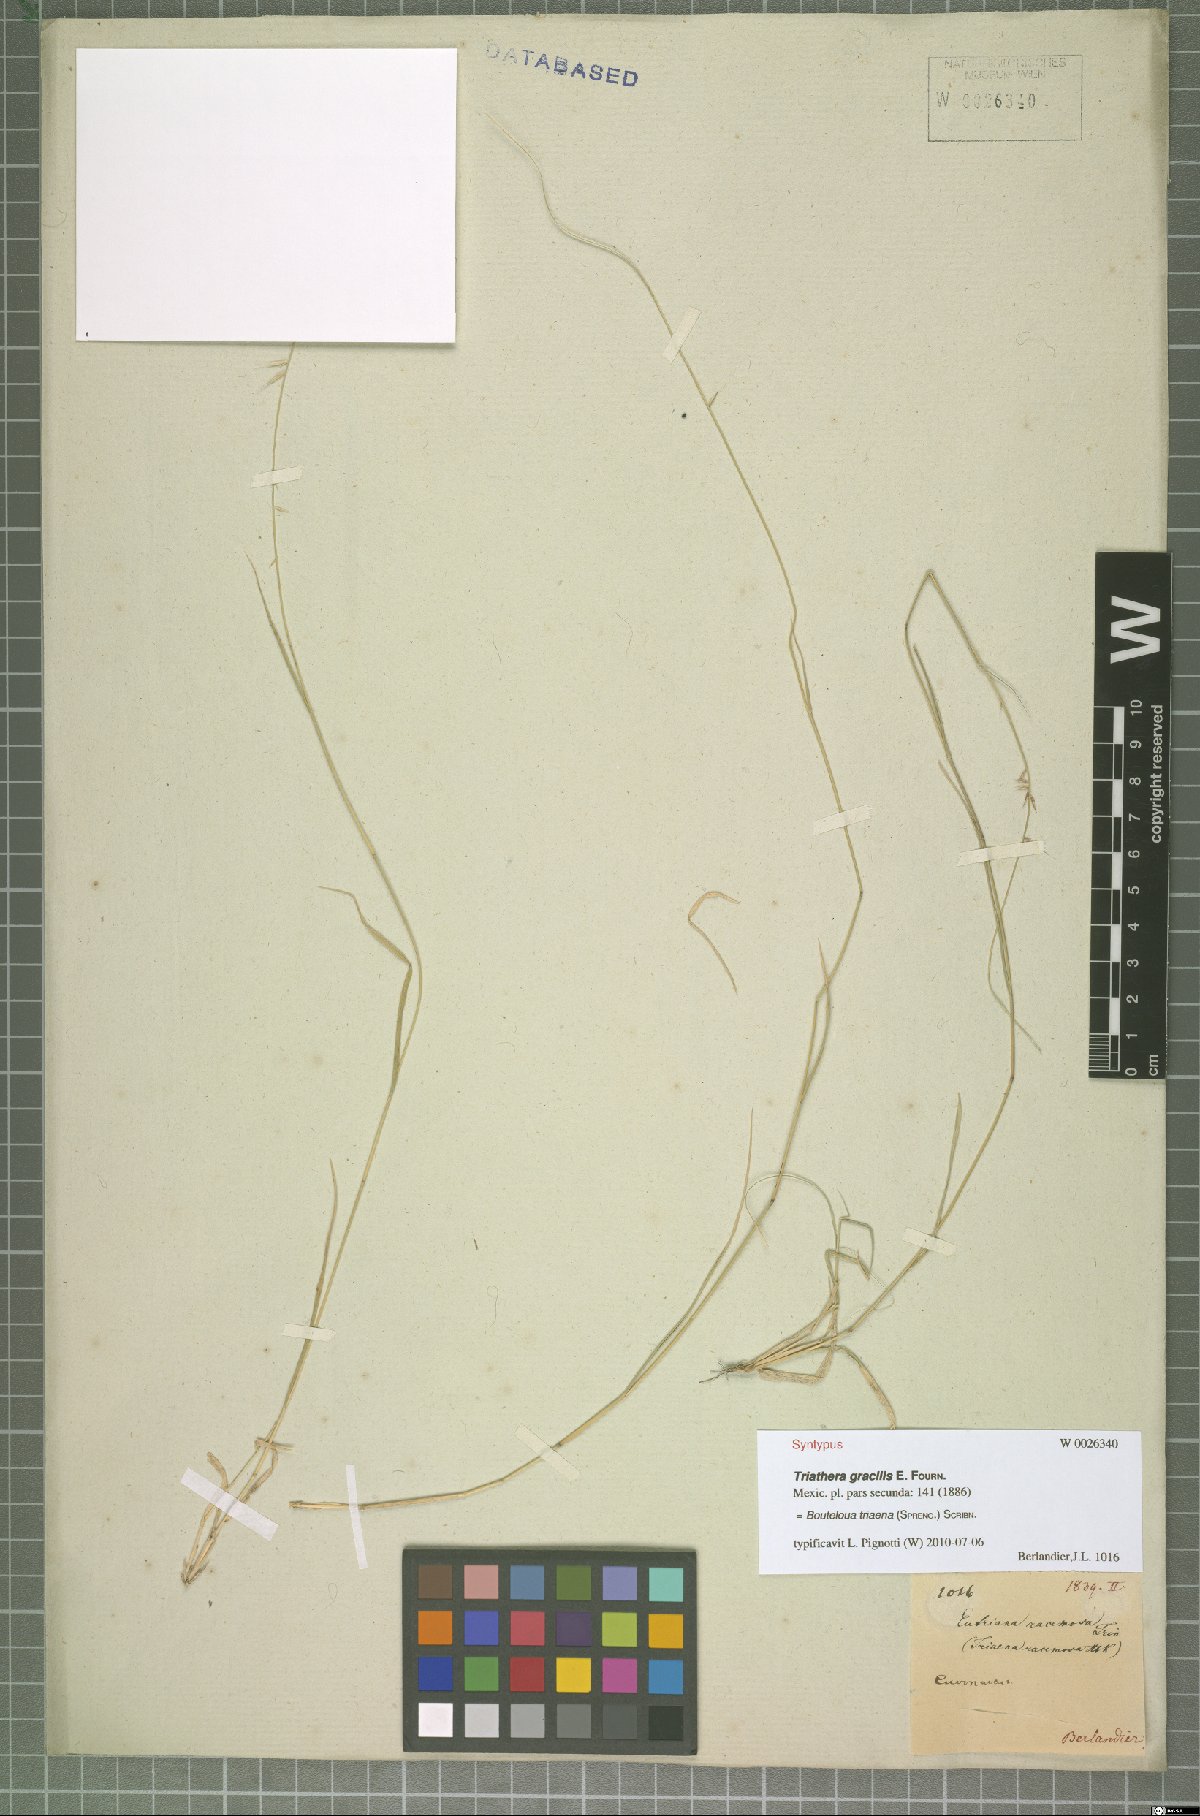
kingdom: Plantae
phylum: Tracheophyta
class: Liliopsida
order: Poales
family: Poaceae
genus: Bouteloua
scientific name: Bouteloua triaena
